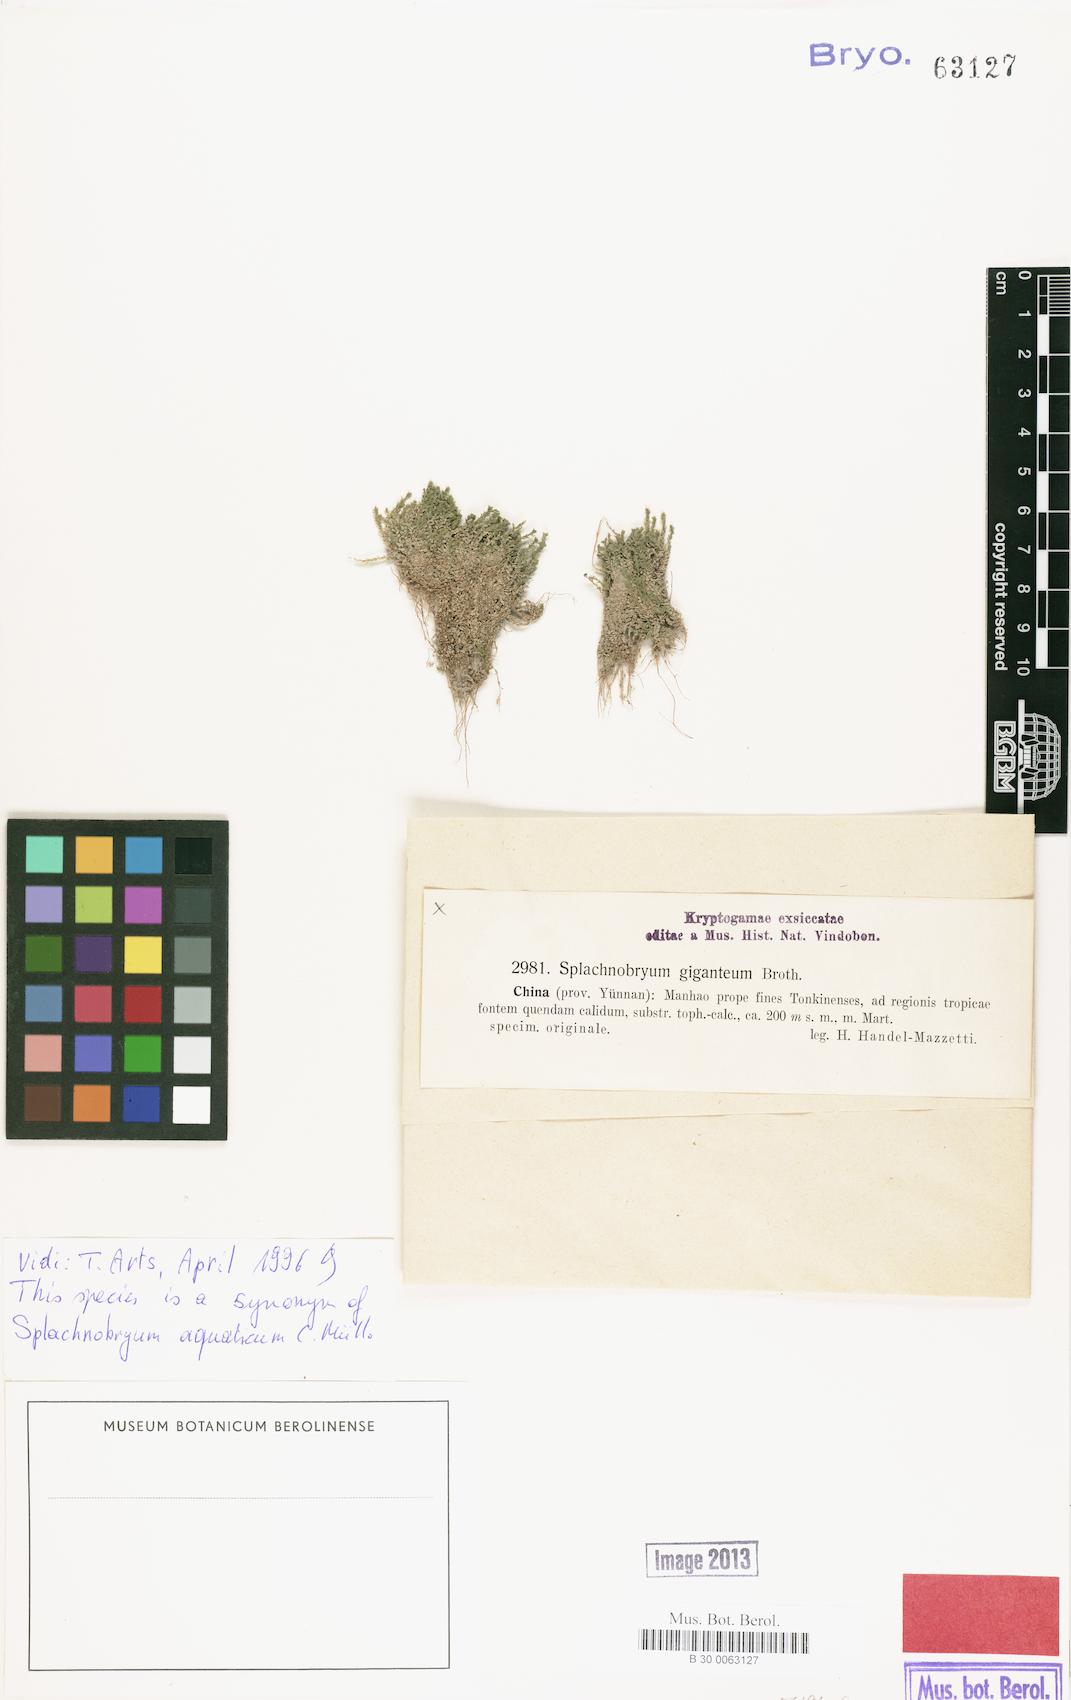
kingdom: Plantae
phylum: Bryophyta
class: Bryopsida
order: Pottiales
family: Splachnobryaceae
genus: Splachnobryum
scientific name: Splachnobryum aquaticum
